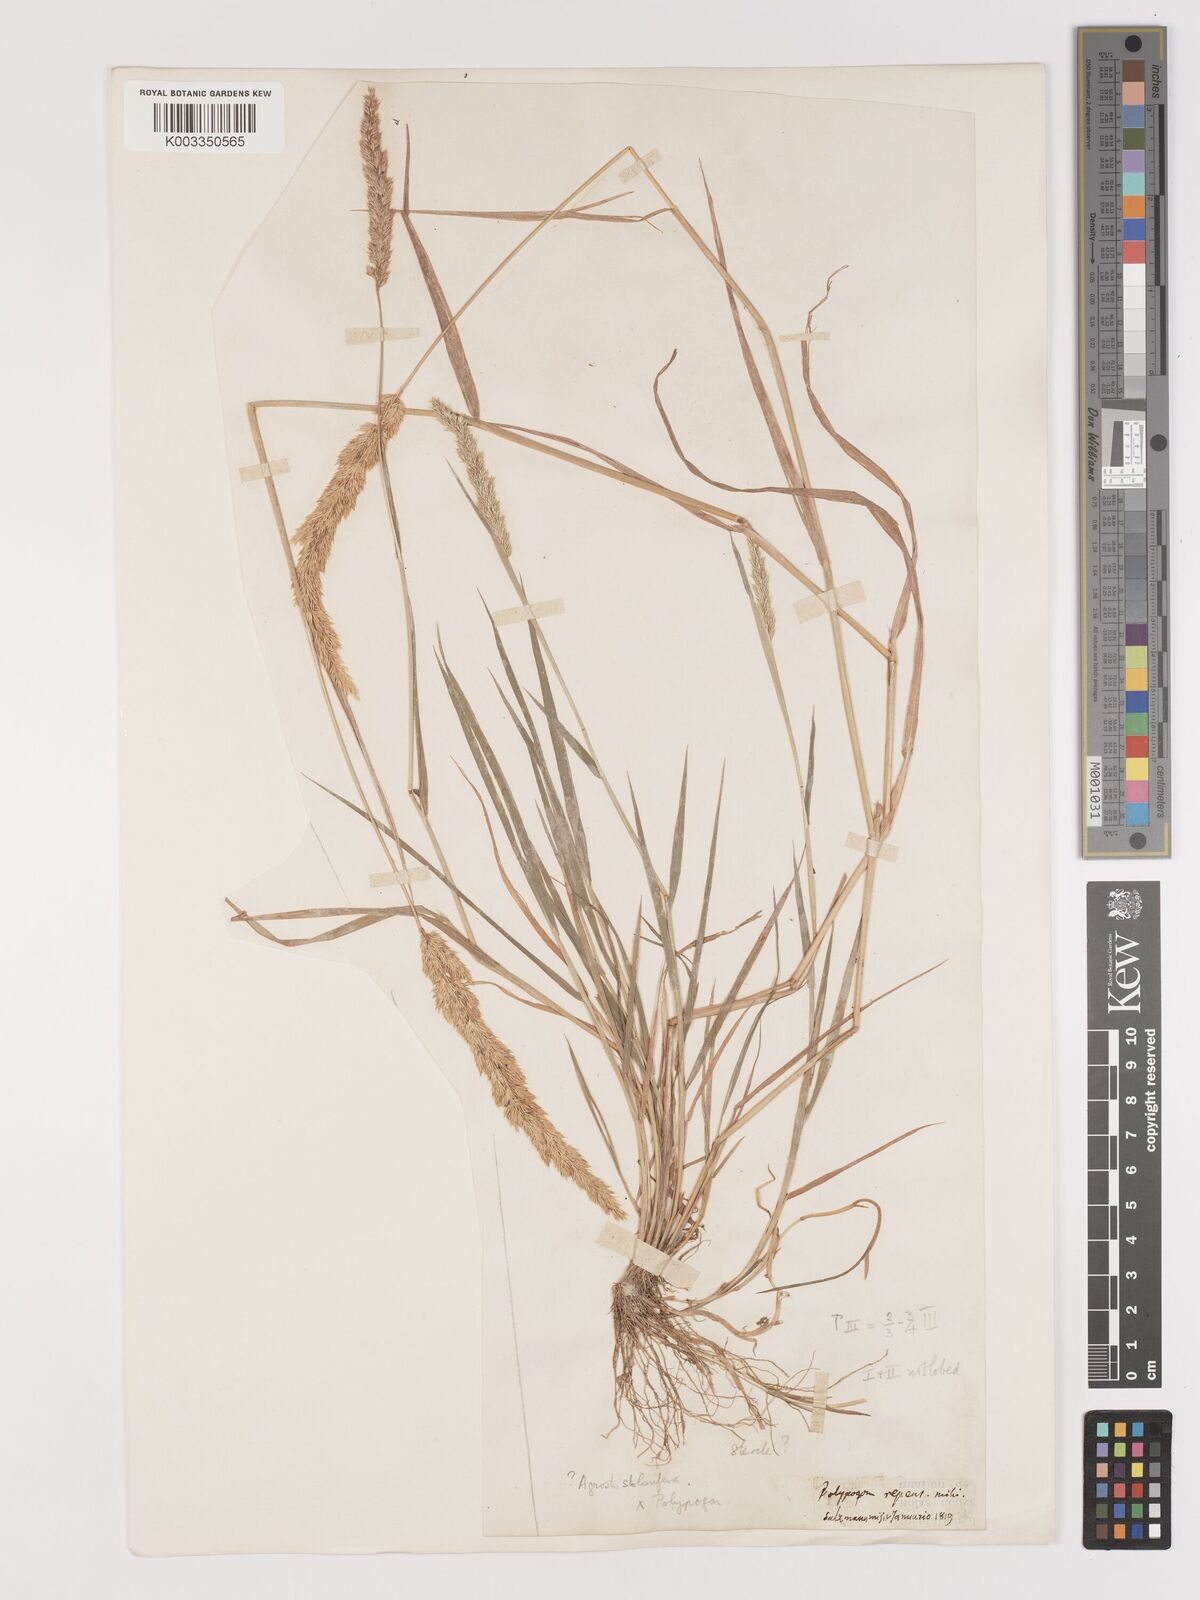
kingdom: Plantae
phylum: Tracheophyta
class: Liliopsida
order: Poales
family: Poaceae
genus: Agropogon
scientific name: Agropogon lutosus
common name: Coast agropogon
